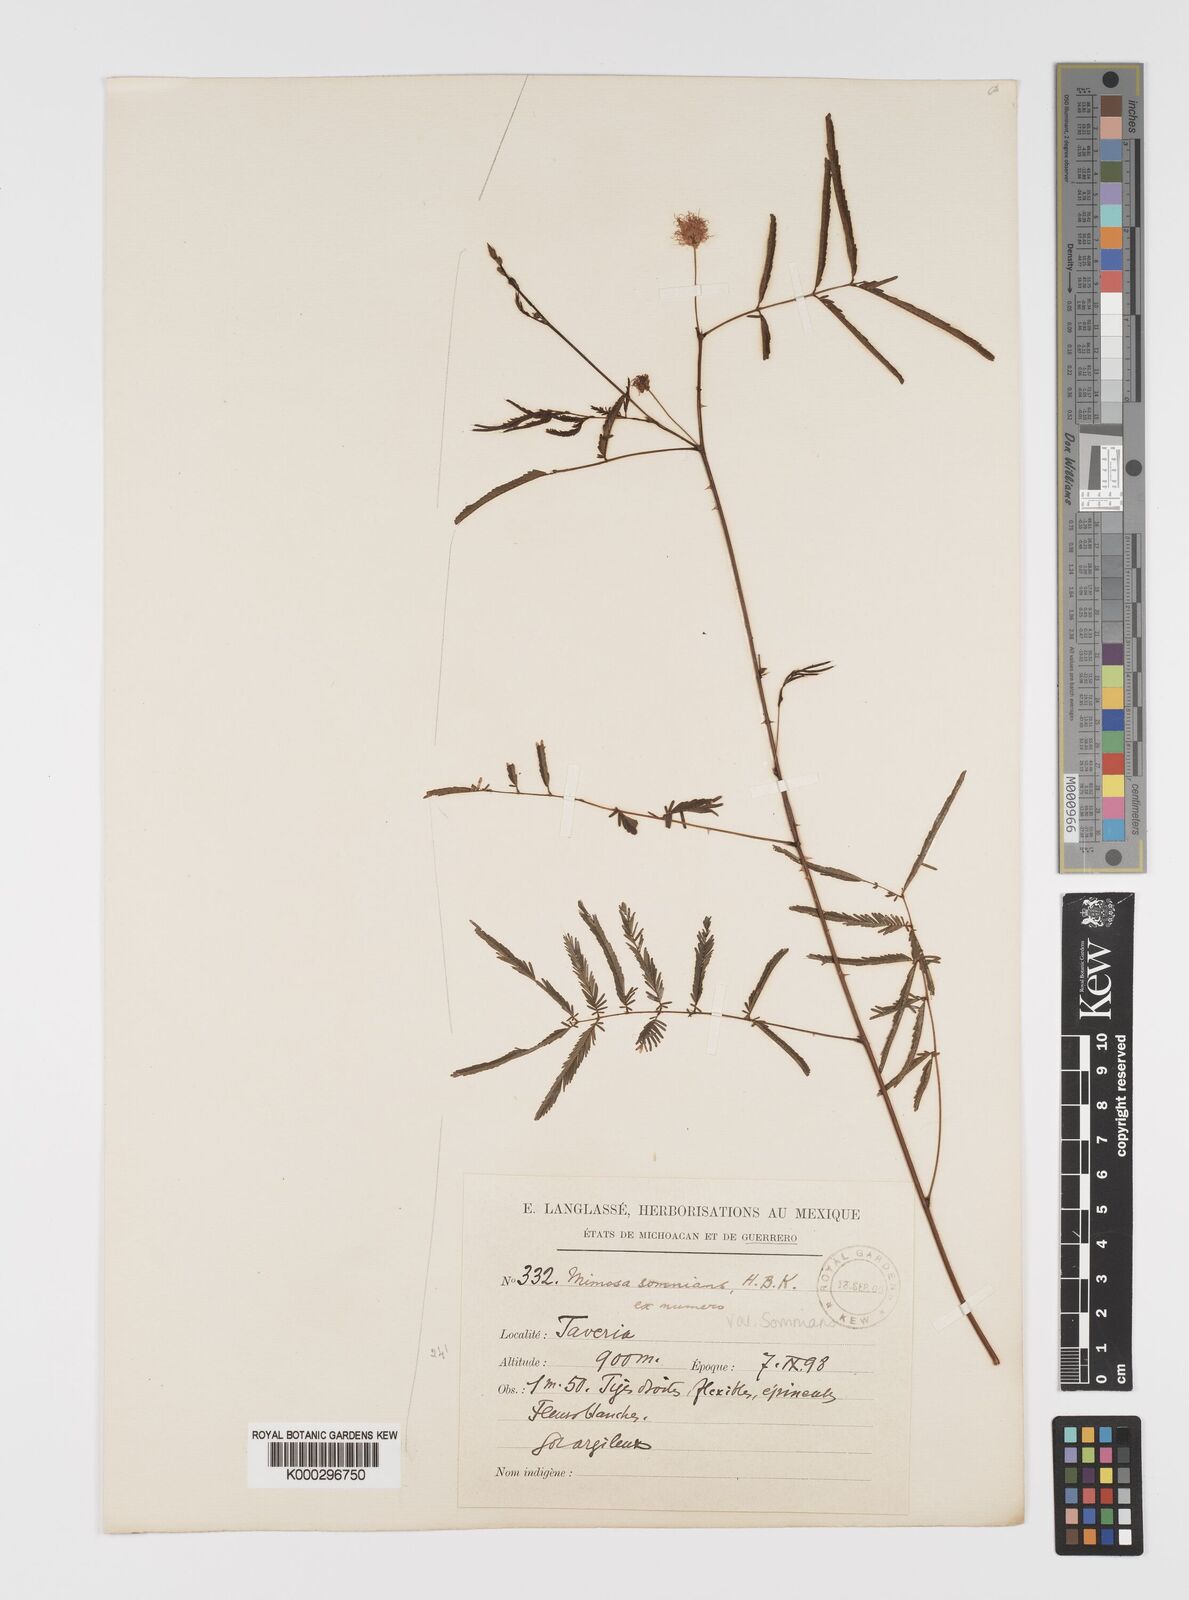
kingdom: Plantae
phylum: Tracheophyta
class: Magnoliopsida
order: Fabales
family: Fabaceae
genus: Mimosa
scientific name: Mimosa somnians
